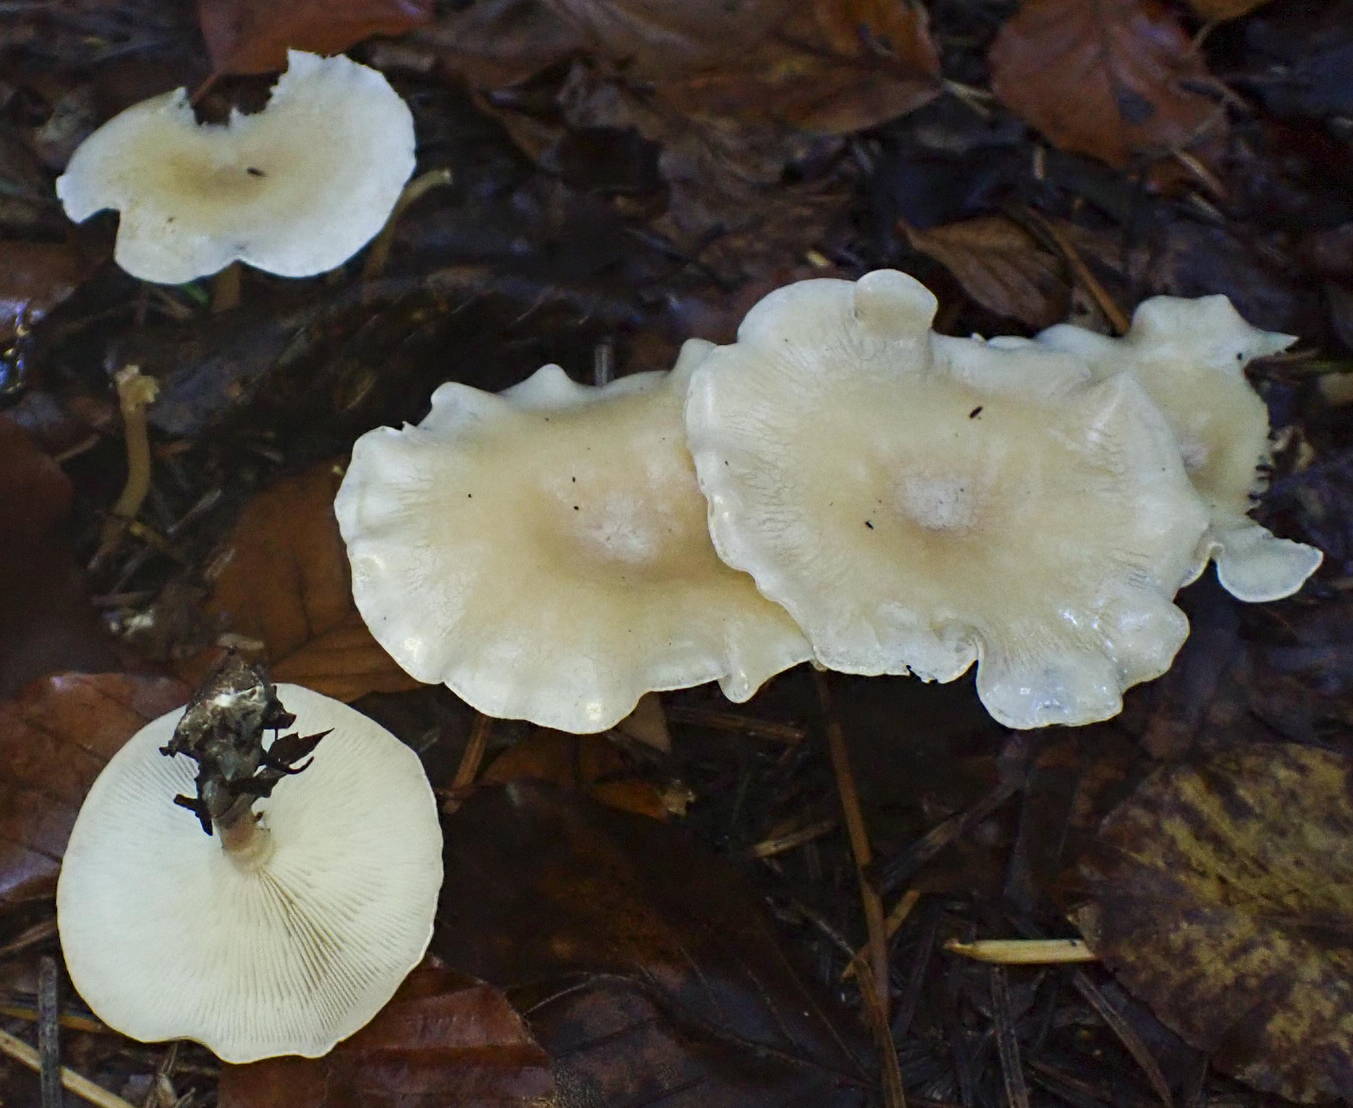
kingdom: Fungi
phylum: Basidiomycota
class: Agaricomycetes
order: Agaricales
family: Tricholomataceae
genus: Leucocybe
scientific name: Leucocybe candicans
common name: kridt-tragthat
